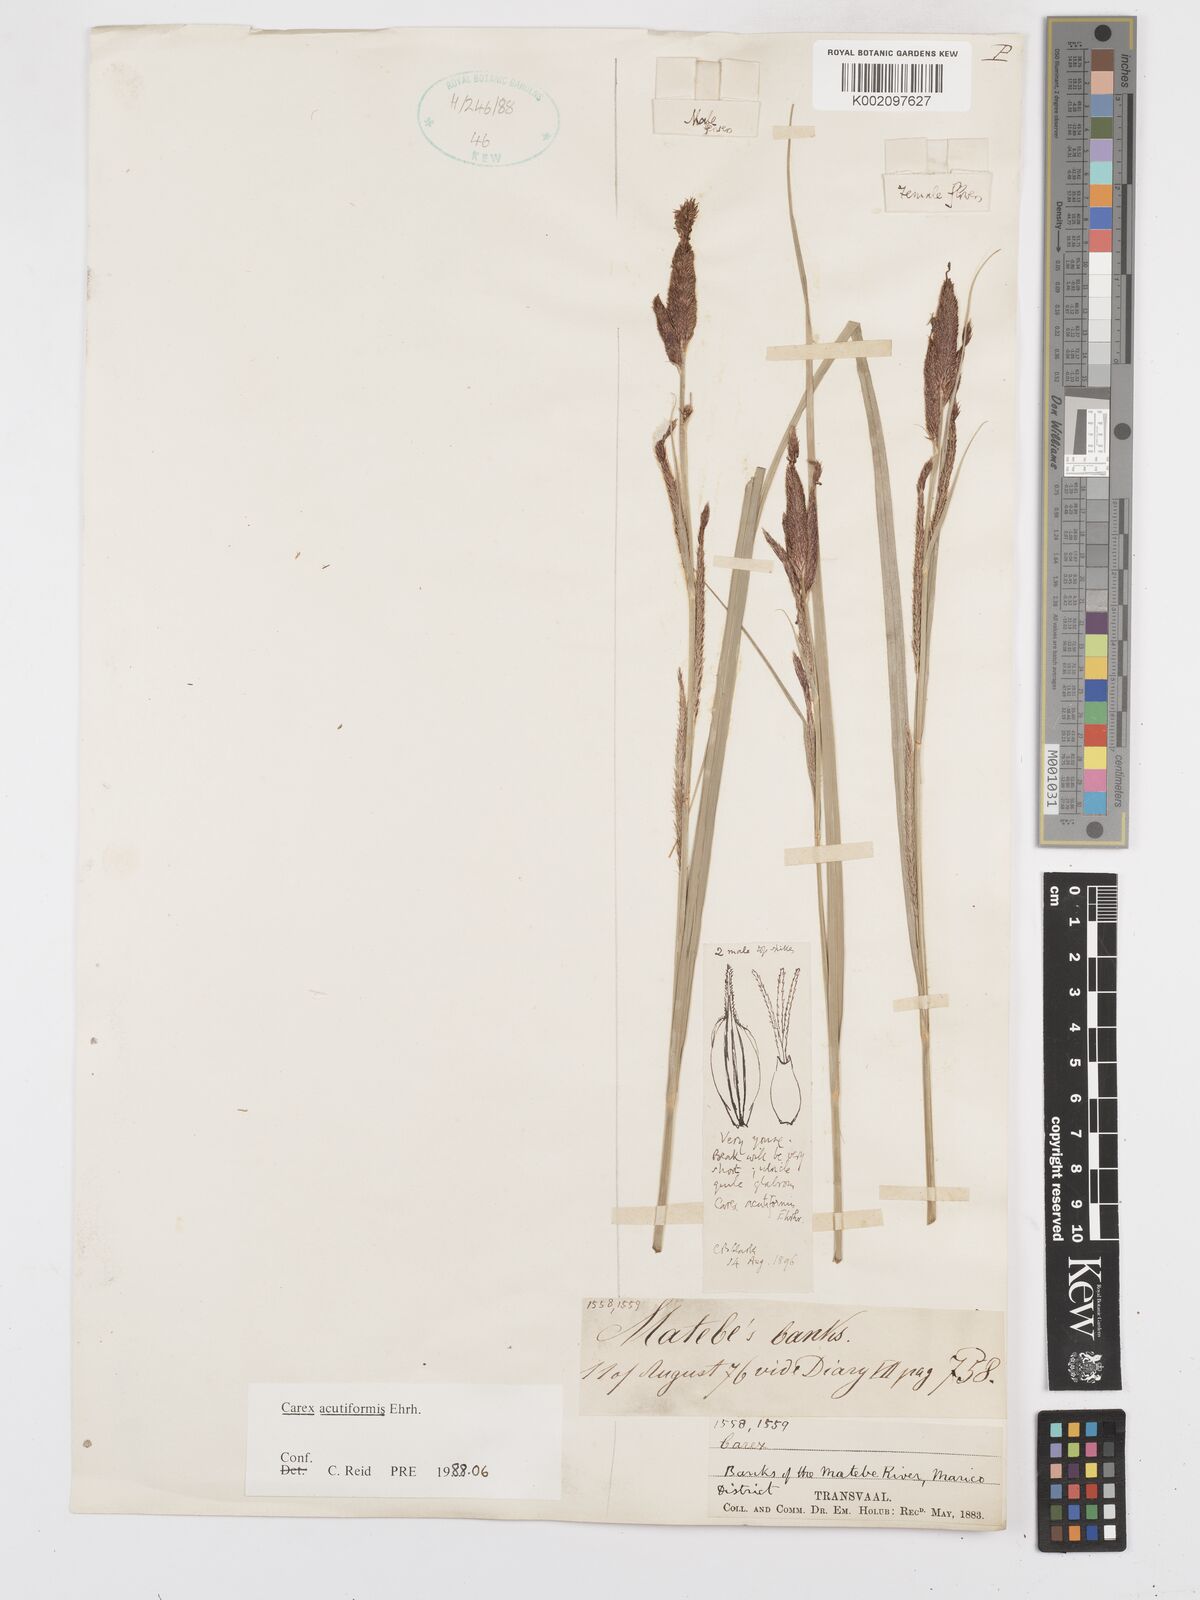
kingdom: Plantae
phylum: Tracheophyta
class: Liliopsida
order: Poales
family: Cyperaceae
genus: Carex
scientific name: Carex acutiformis
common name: Lesser pond-sedge
